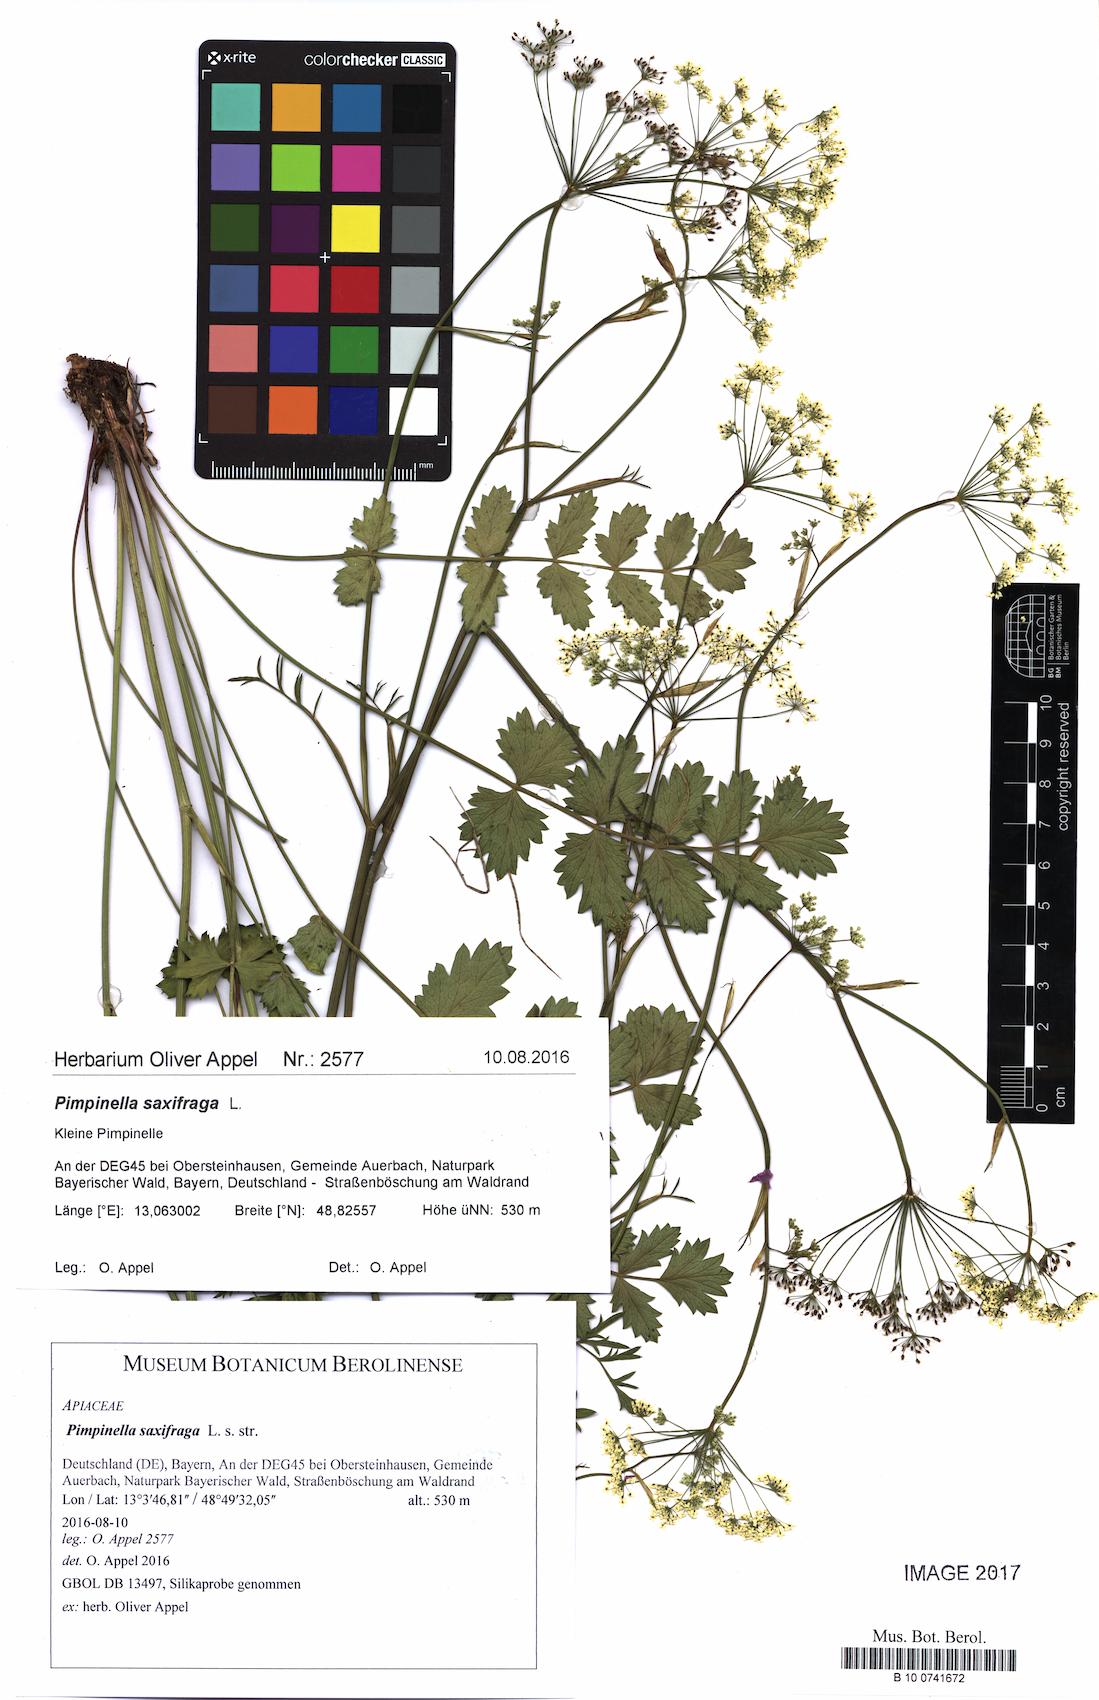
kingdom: Plantae
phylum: Tracheophyta
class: Magnoliopsida
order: Apiales
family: Apiaceae
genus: Pimpinella
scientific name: Pimpinella saxifraga
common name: Burnet-saxifrage
